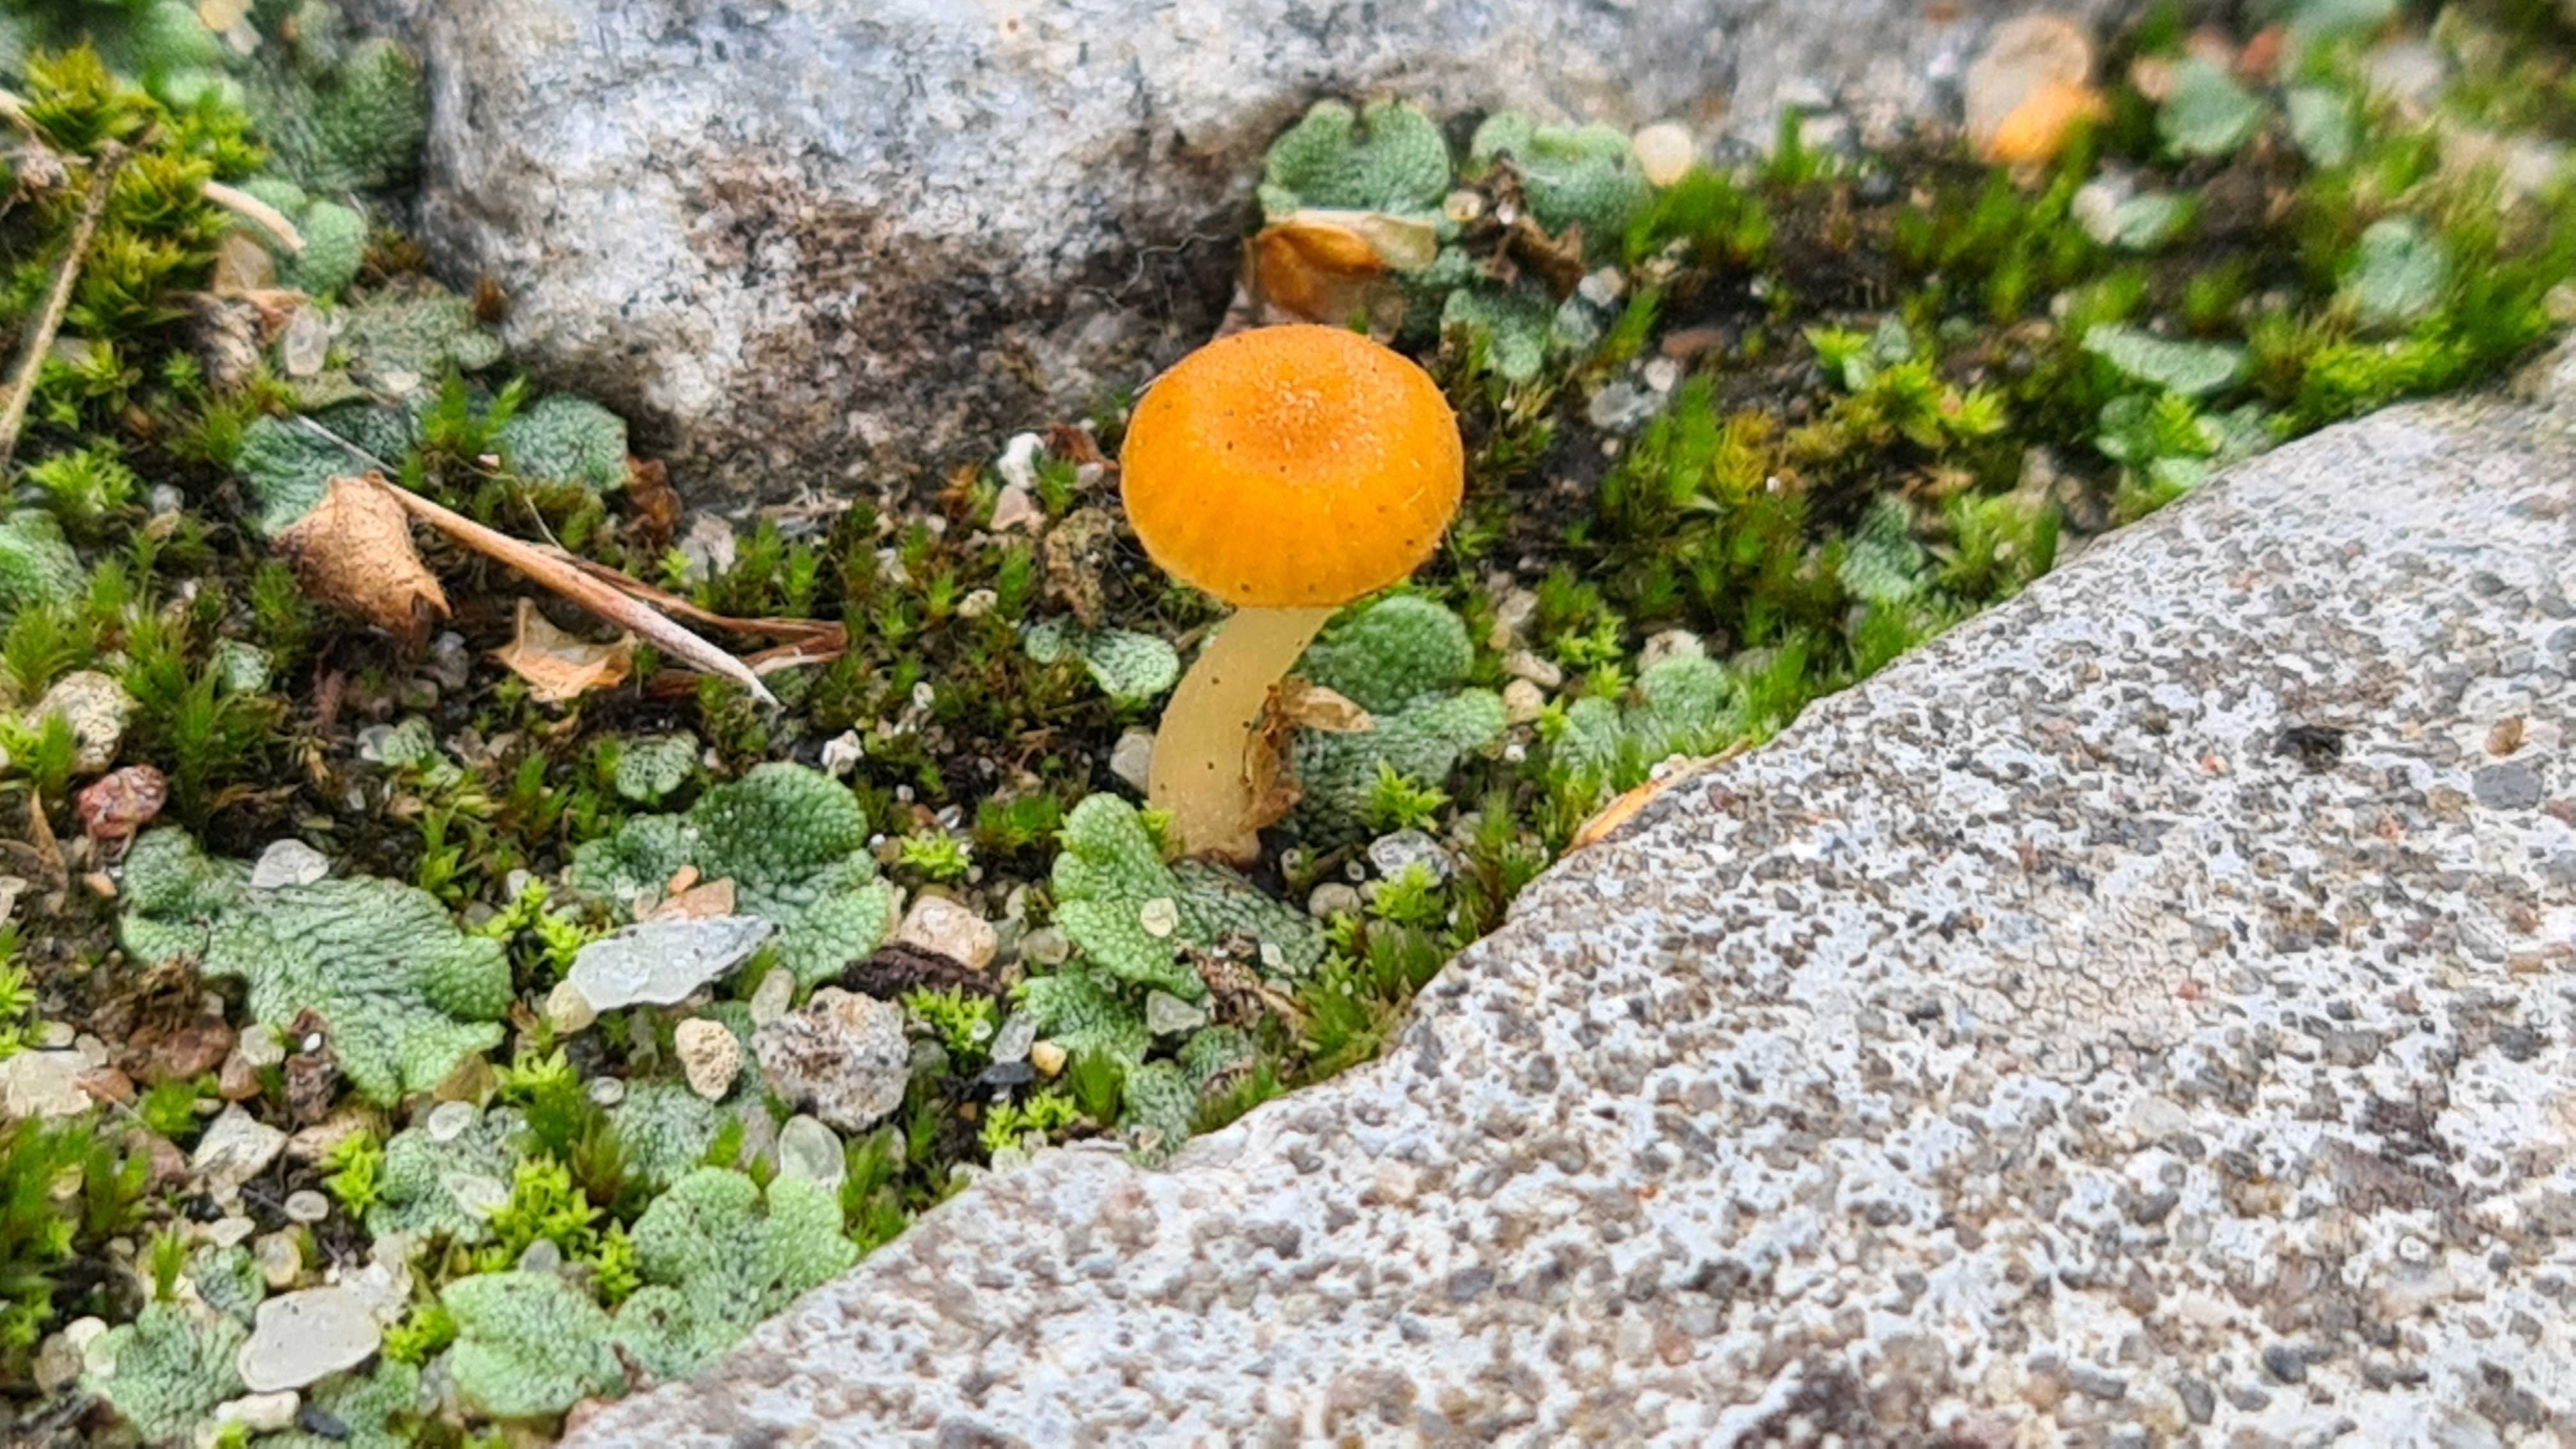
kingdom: Fungi
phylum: Basidiomycota
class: Agaricomycetes
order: Hymenochaetales
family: Rickenellaceae
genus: Loreleia
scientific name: Loreleia
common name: mosnavlehat
